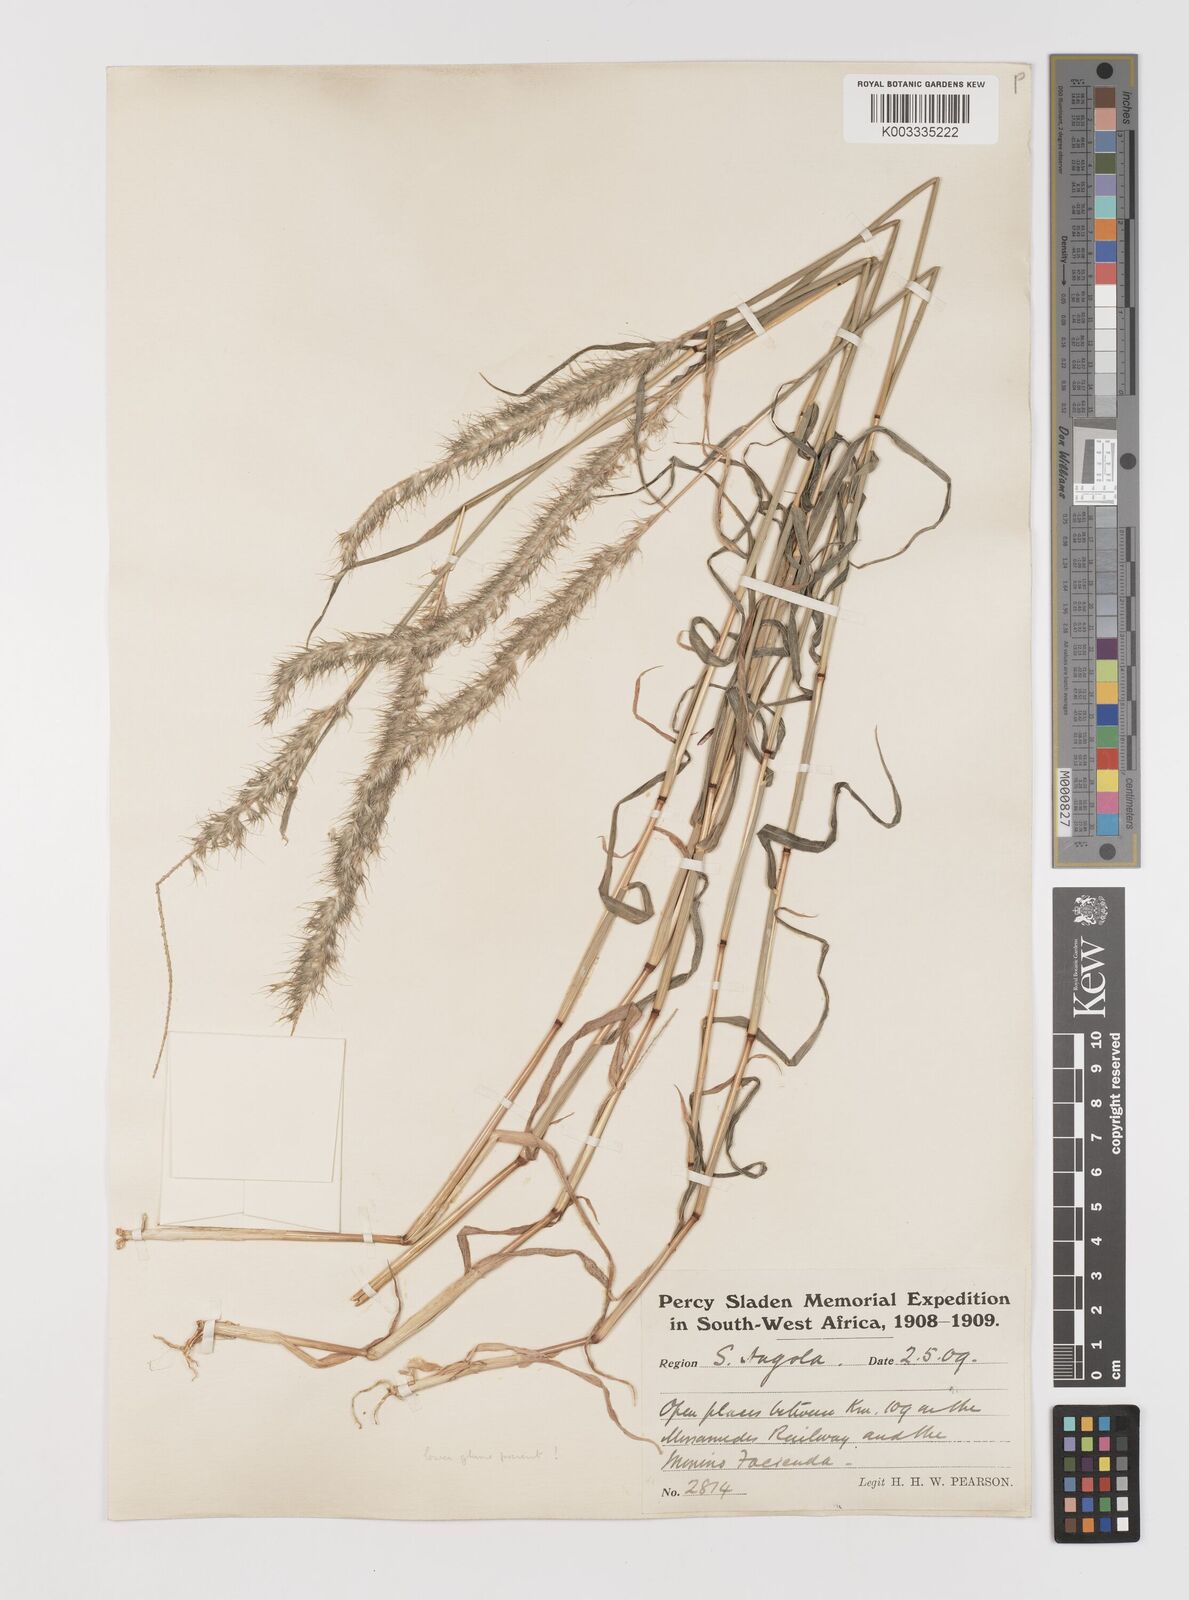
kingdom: Plantae
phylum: Tracheophyta
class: Liliopsida
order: Poales
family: Poaceae
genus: Monelytrum
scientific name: Monelytrum luederitzianum
